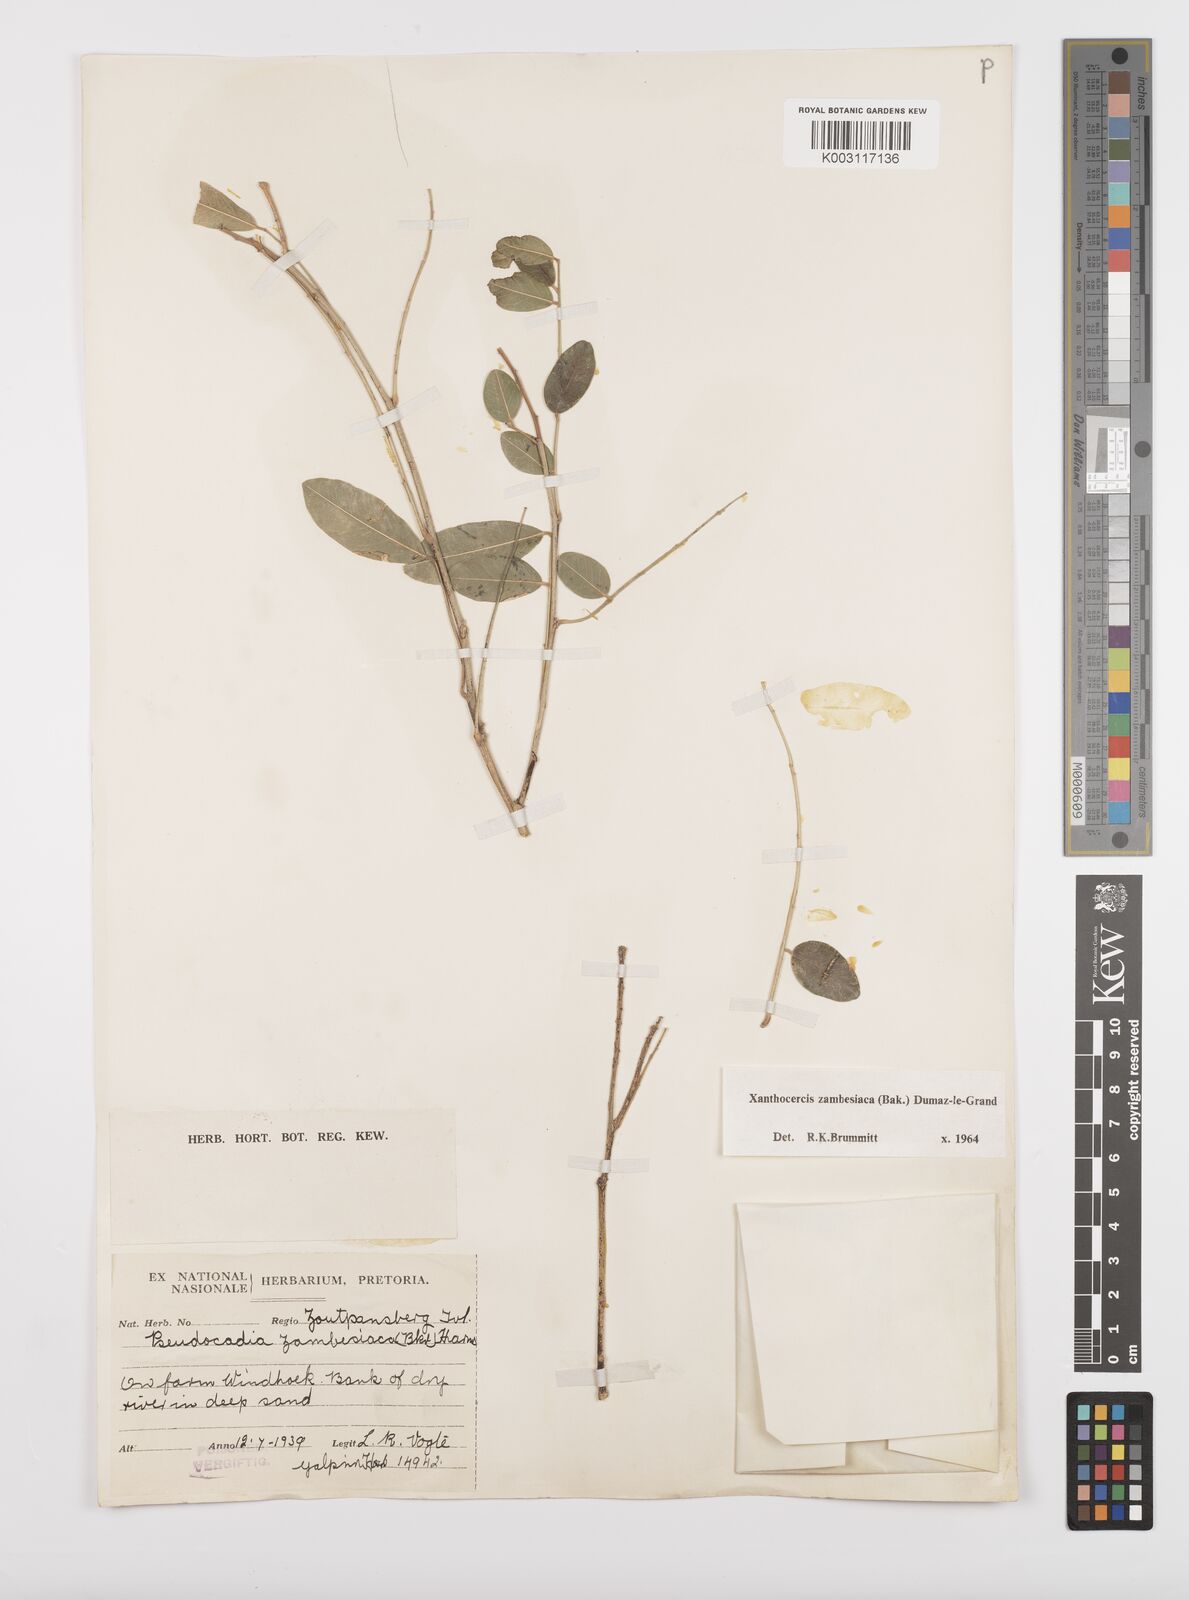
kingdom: Plantae
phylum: Tracheophyta
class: Magnoliopsida
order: Fabales
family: Fabaceae
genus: Xanthocercis
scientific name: Xanthocercis zambesiaca
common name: Nyala-tree
